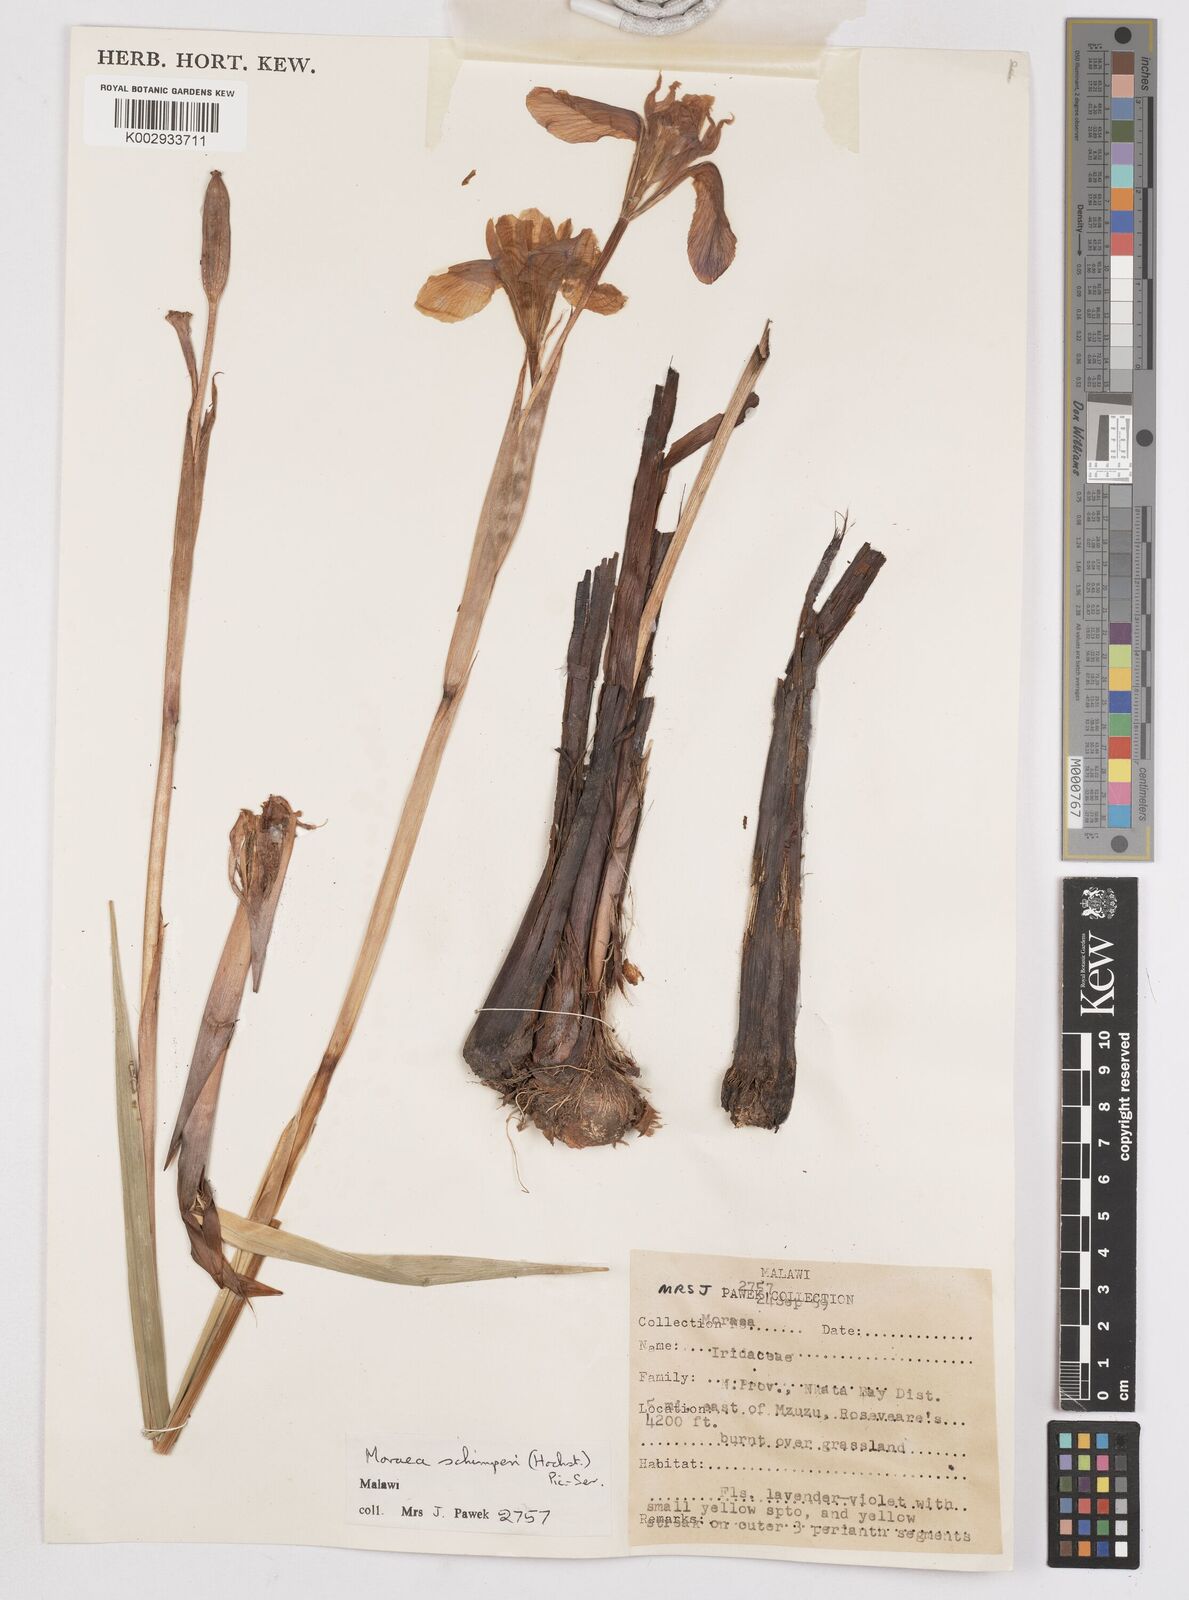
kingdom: Plantae
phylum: Tracheophyta
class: Liliopsida
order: Asparagales
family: Iridaceae
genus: Moraea
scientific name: Moraea schimperi
